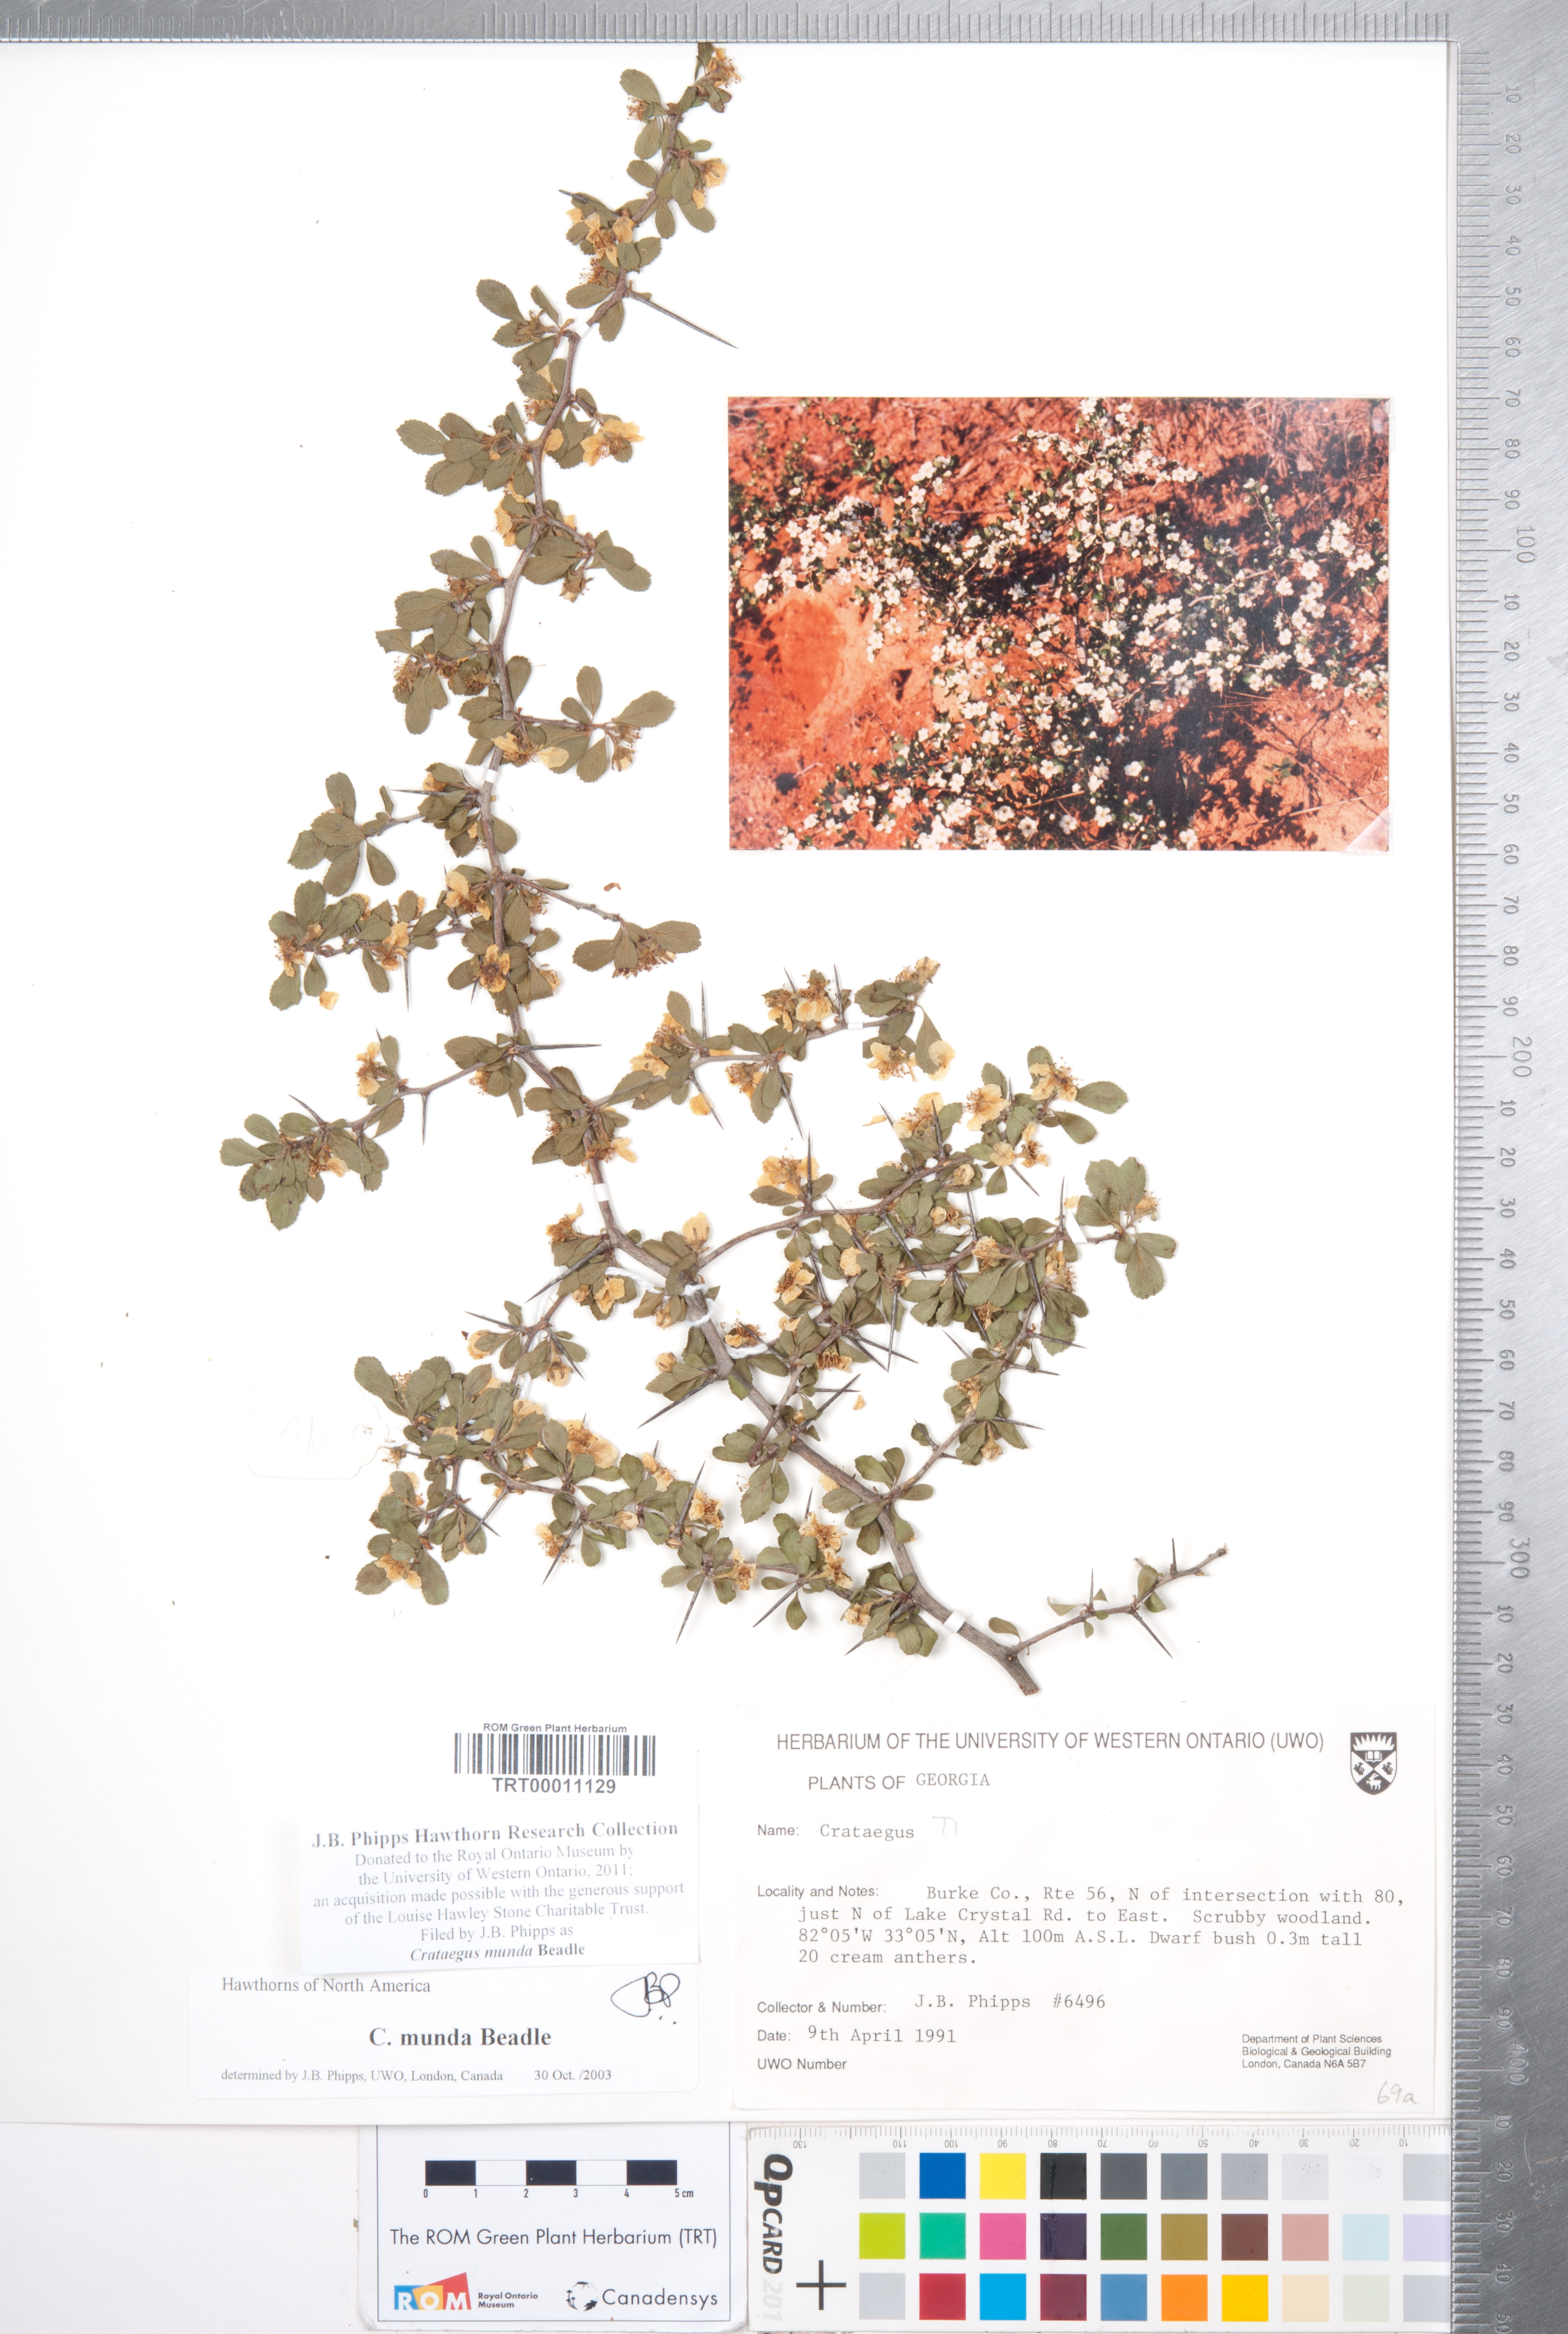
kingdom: Plantae
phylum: Tracheophyta
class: Magnoliopsida
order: Rosales
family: Rosaceae
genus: Crataegus
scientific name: Crataegus munda
